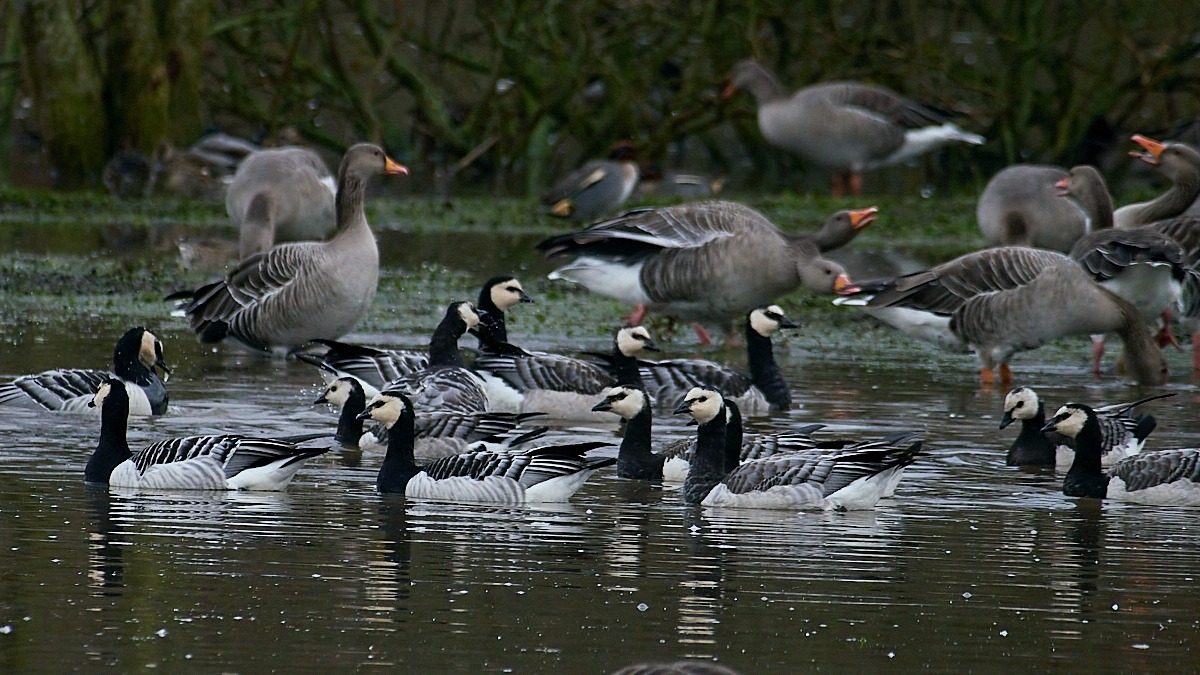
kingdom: Animalia
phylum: Chordata
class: Aves
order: Anseriformes
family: Anatidae
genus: Branta
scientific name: Branta leucopsis
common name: Bramgås
